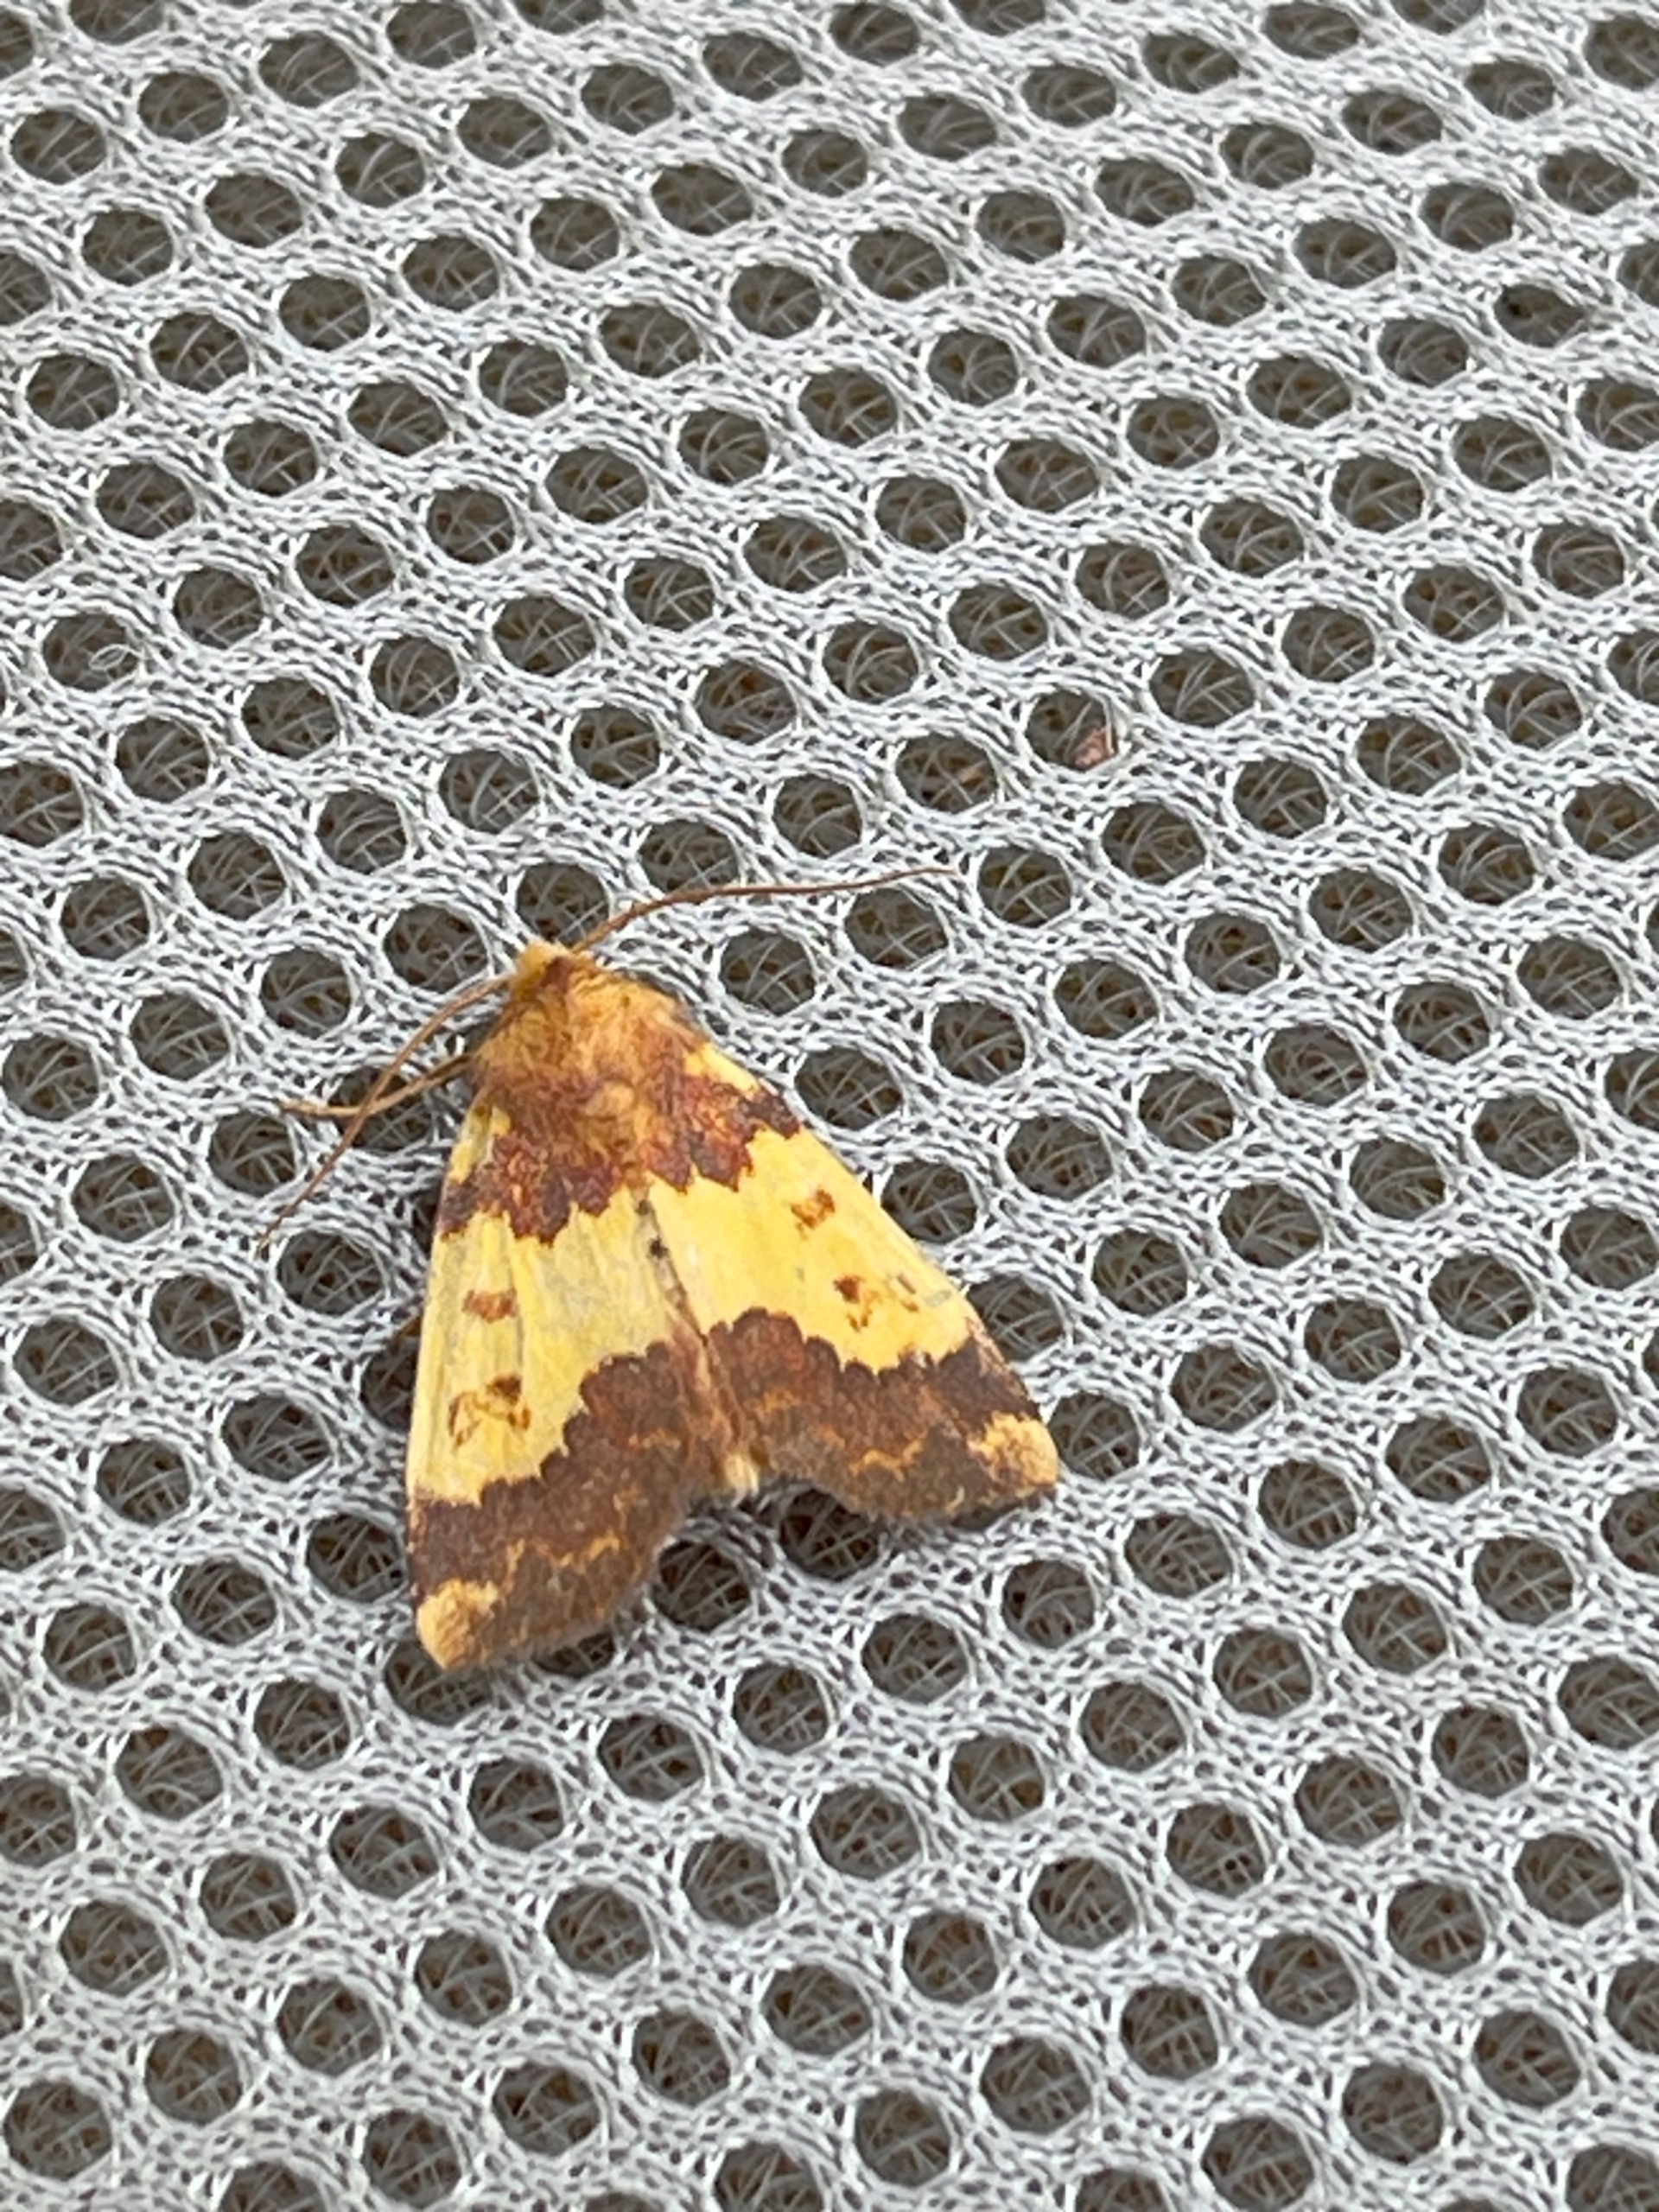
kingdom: Animalia
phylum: Arthropoda
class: Insecta
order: Lepidoptera
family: Noctuidae
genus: Tiliacea
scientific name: Tiliacea aurago
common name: Guldugle
